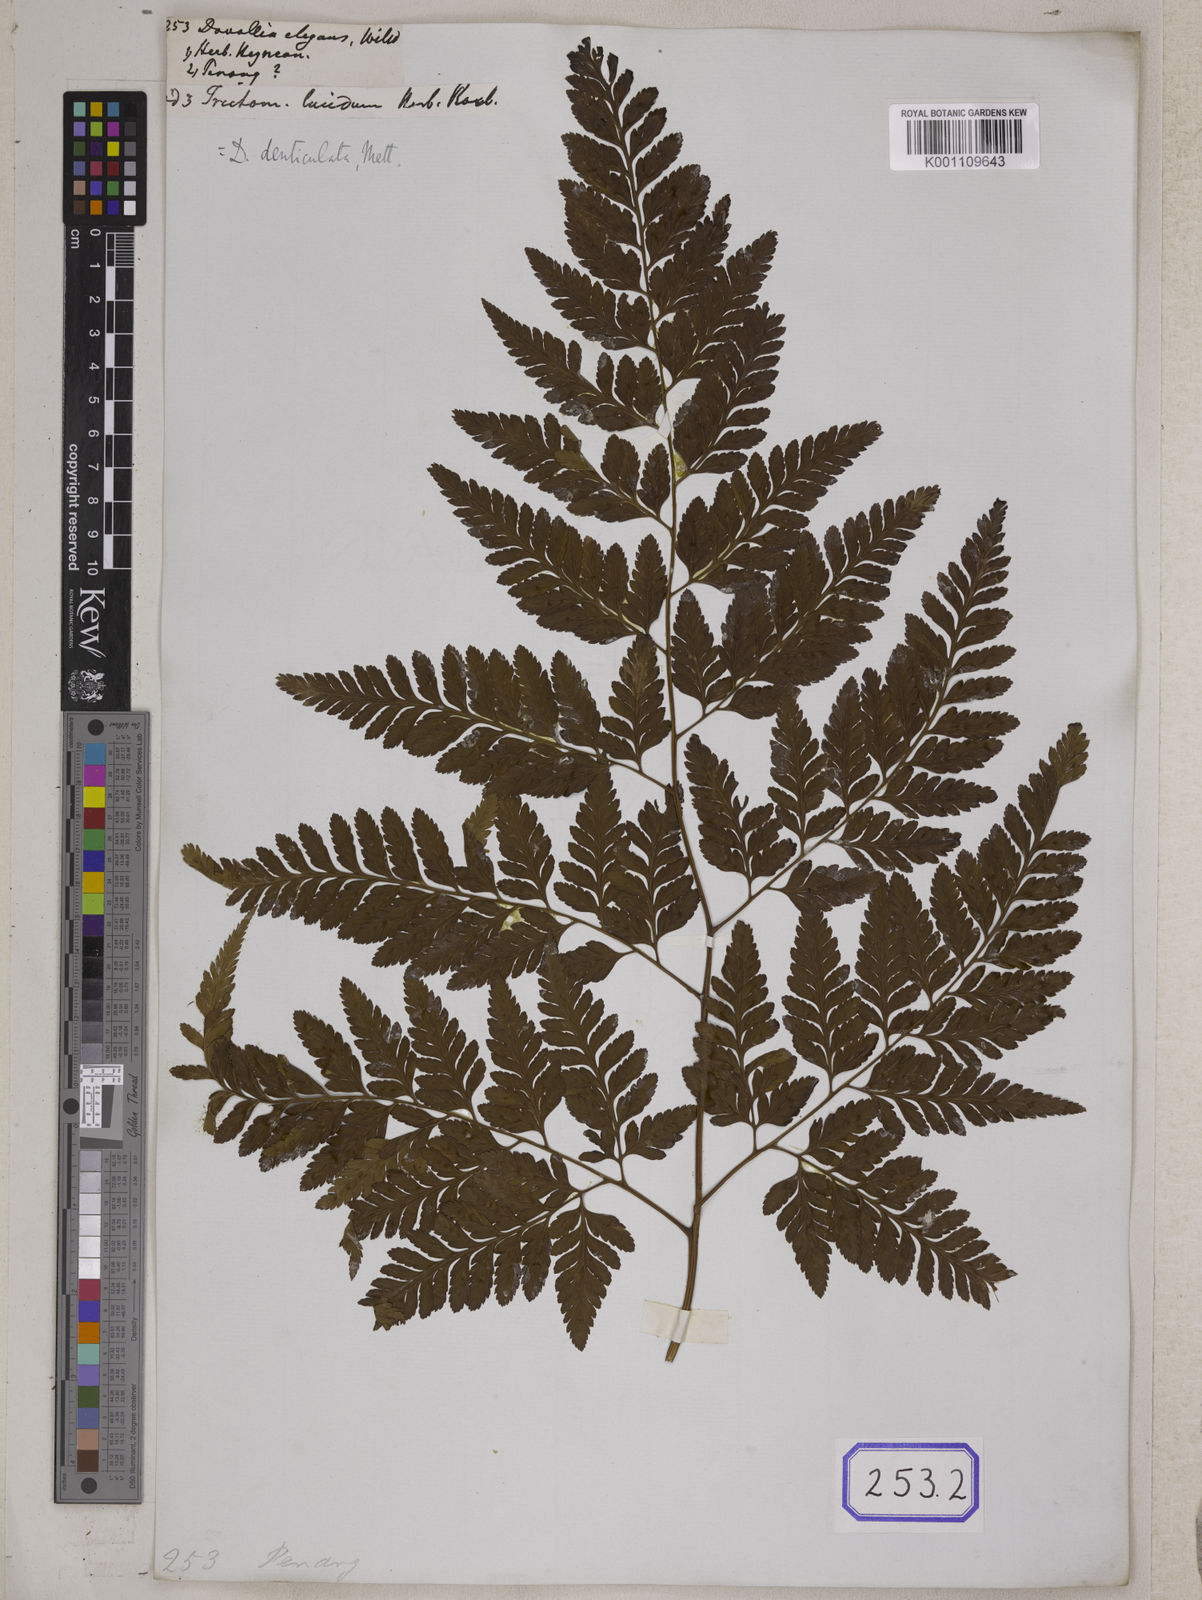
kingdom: Plantae
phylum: Tracheophyta
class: Polypodiopsida
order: Polypodiales
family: Davalliaceae
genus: Davallia
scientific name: Davallia
